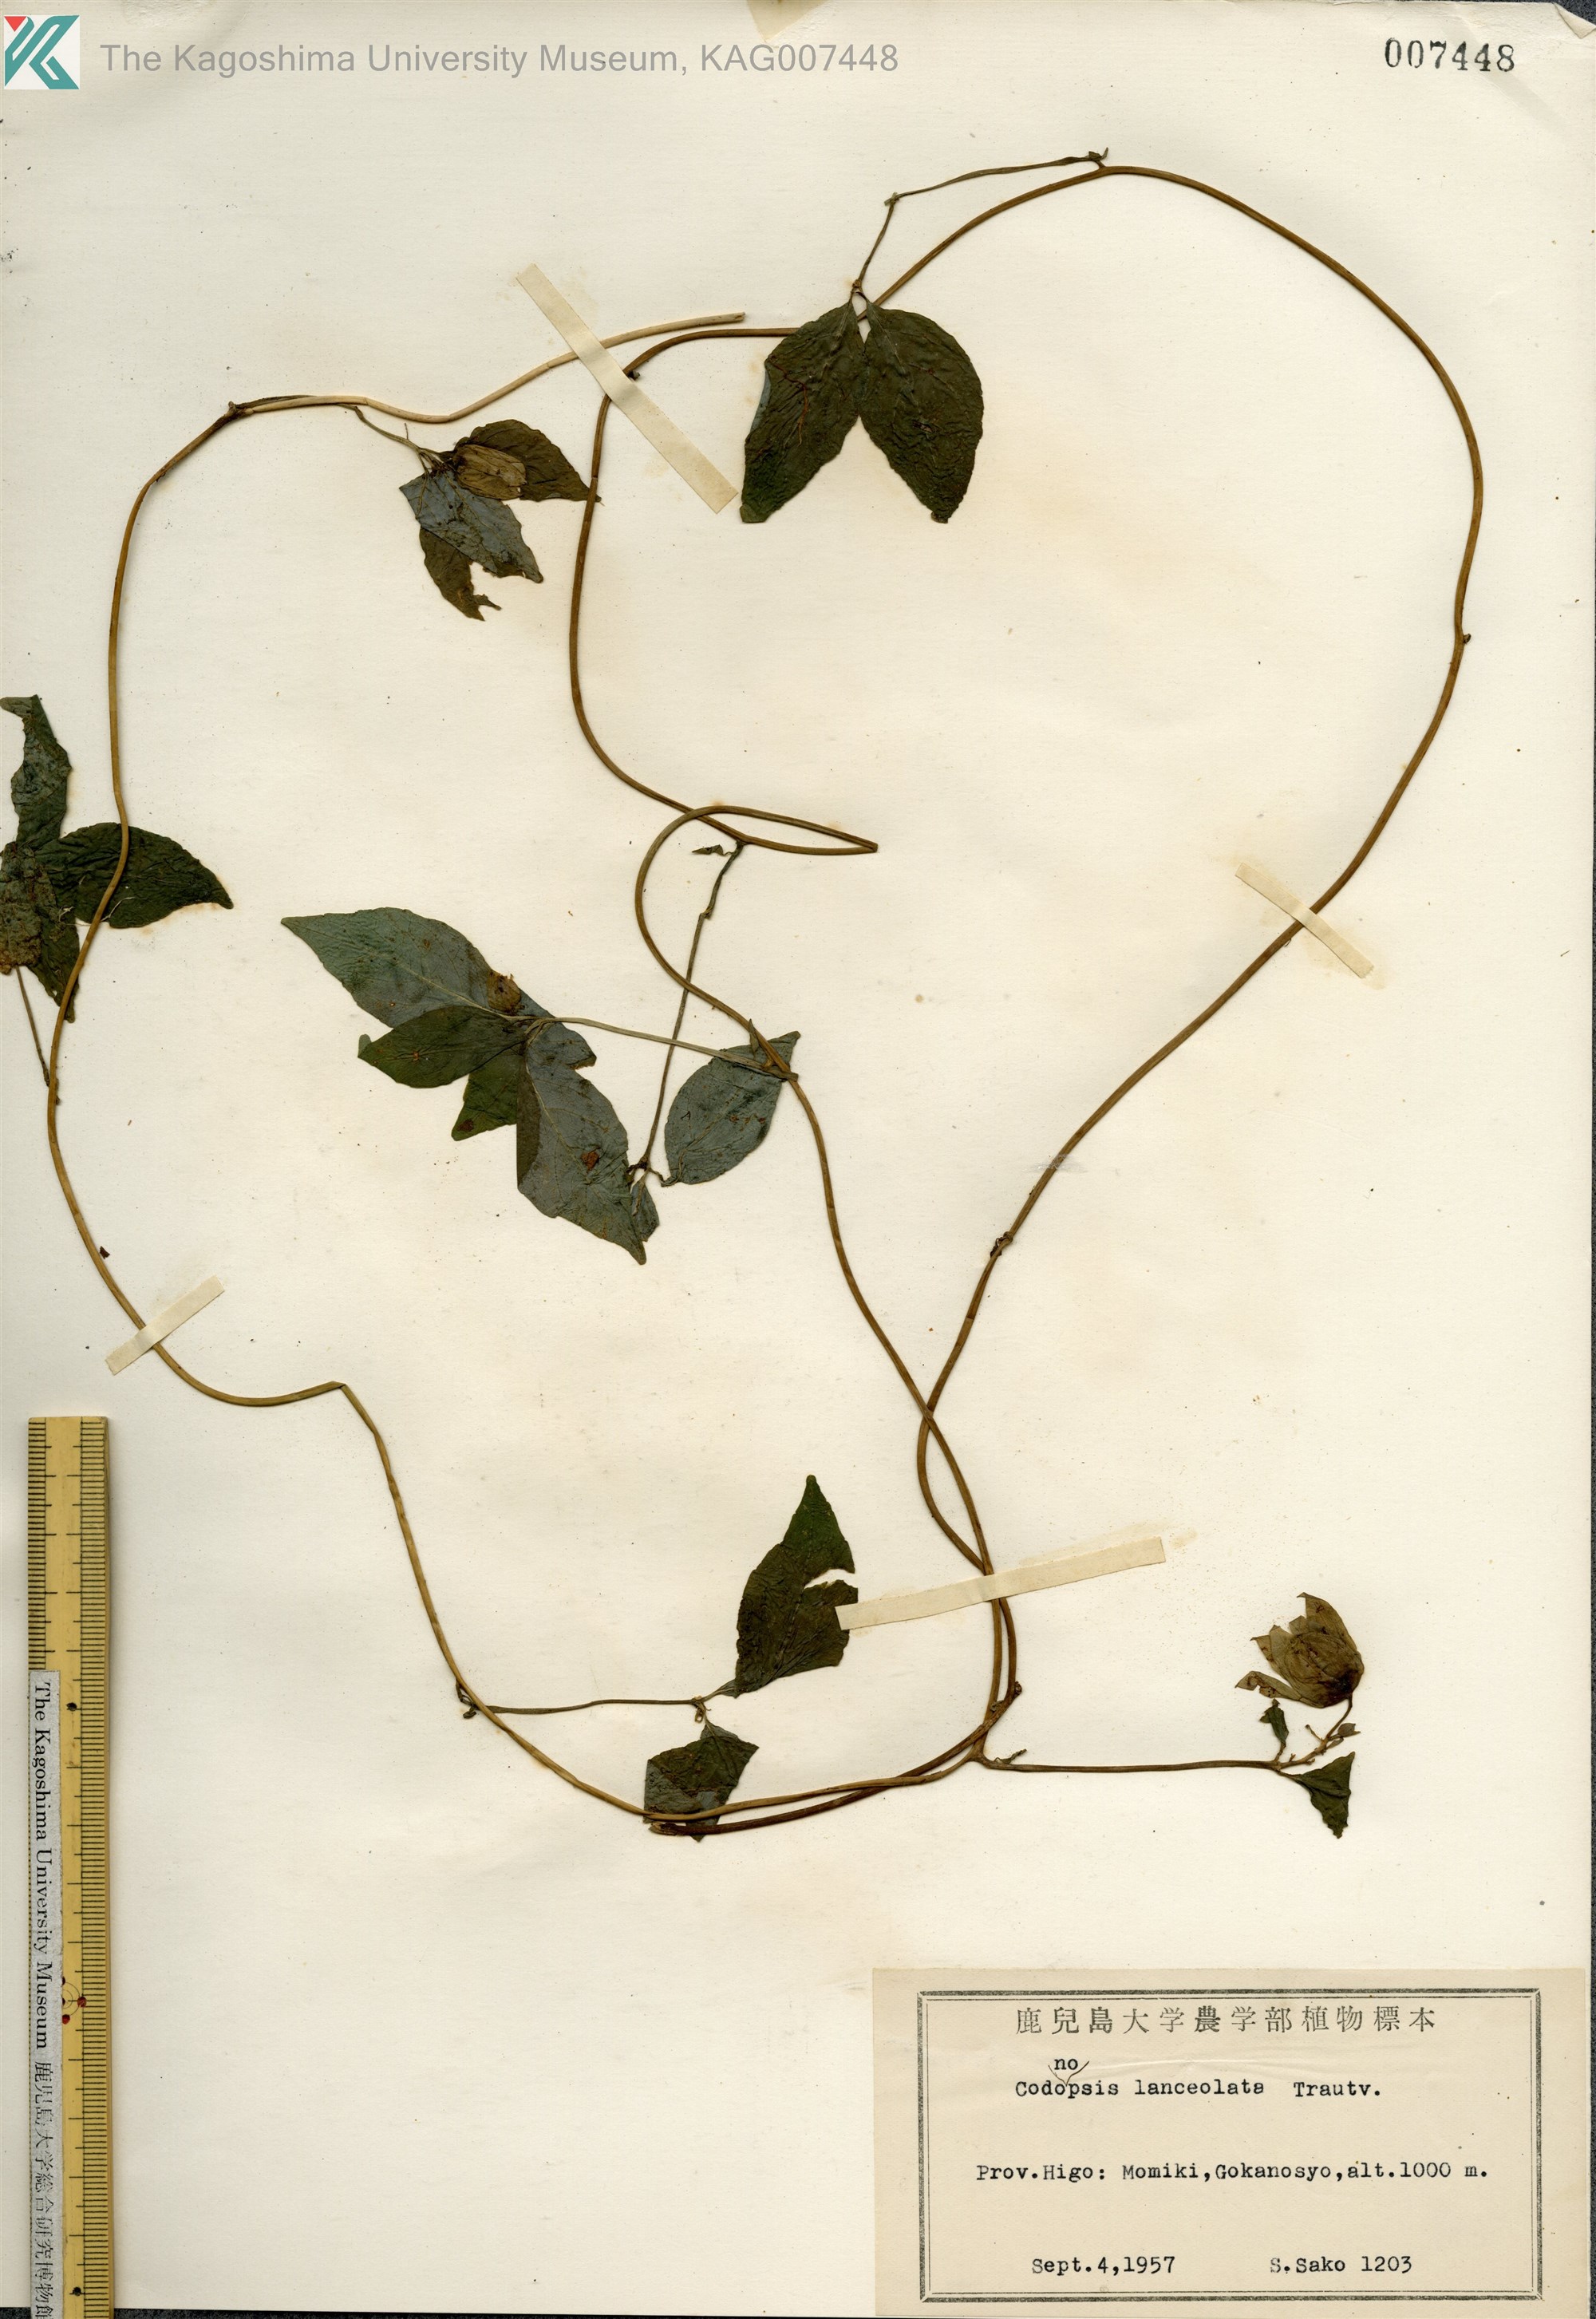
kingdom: Plantae
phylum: Tracheophyta
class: Magnoliopsida
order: Asterales
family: Campanulaceae
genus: Codonopsis
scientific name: Codonopsis lanceolata
